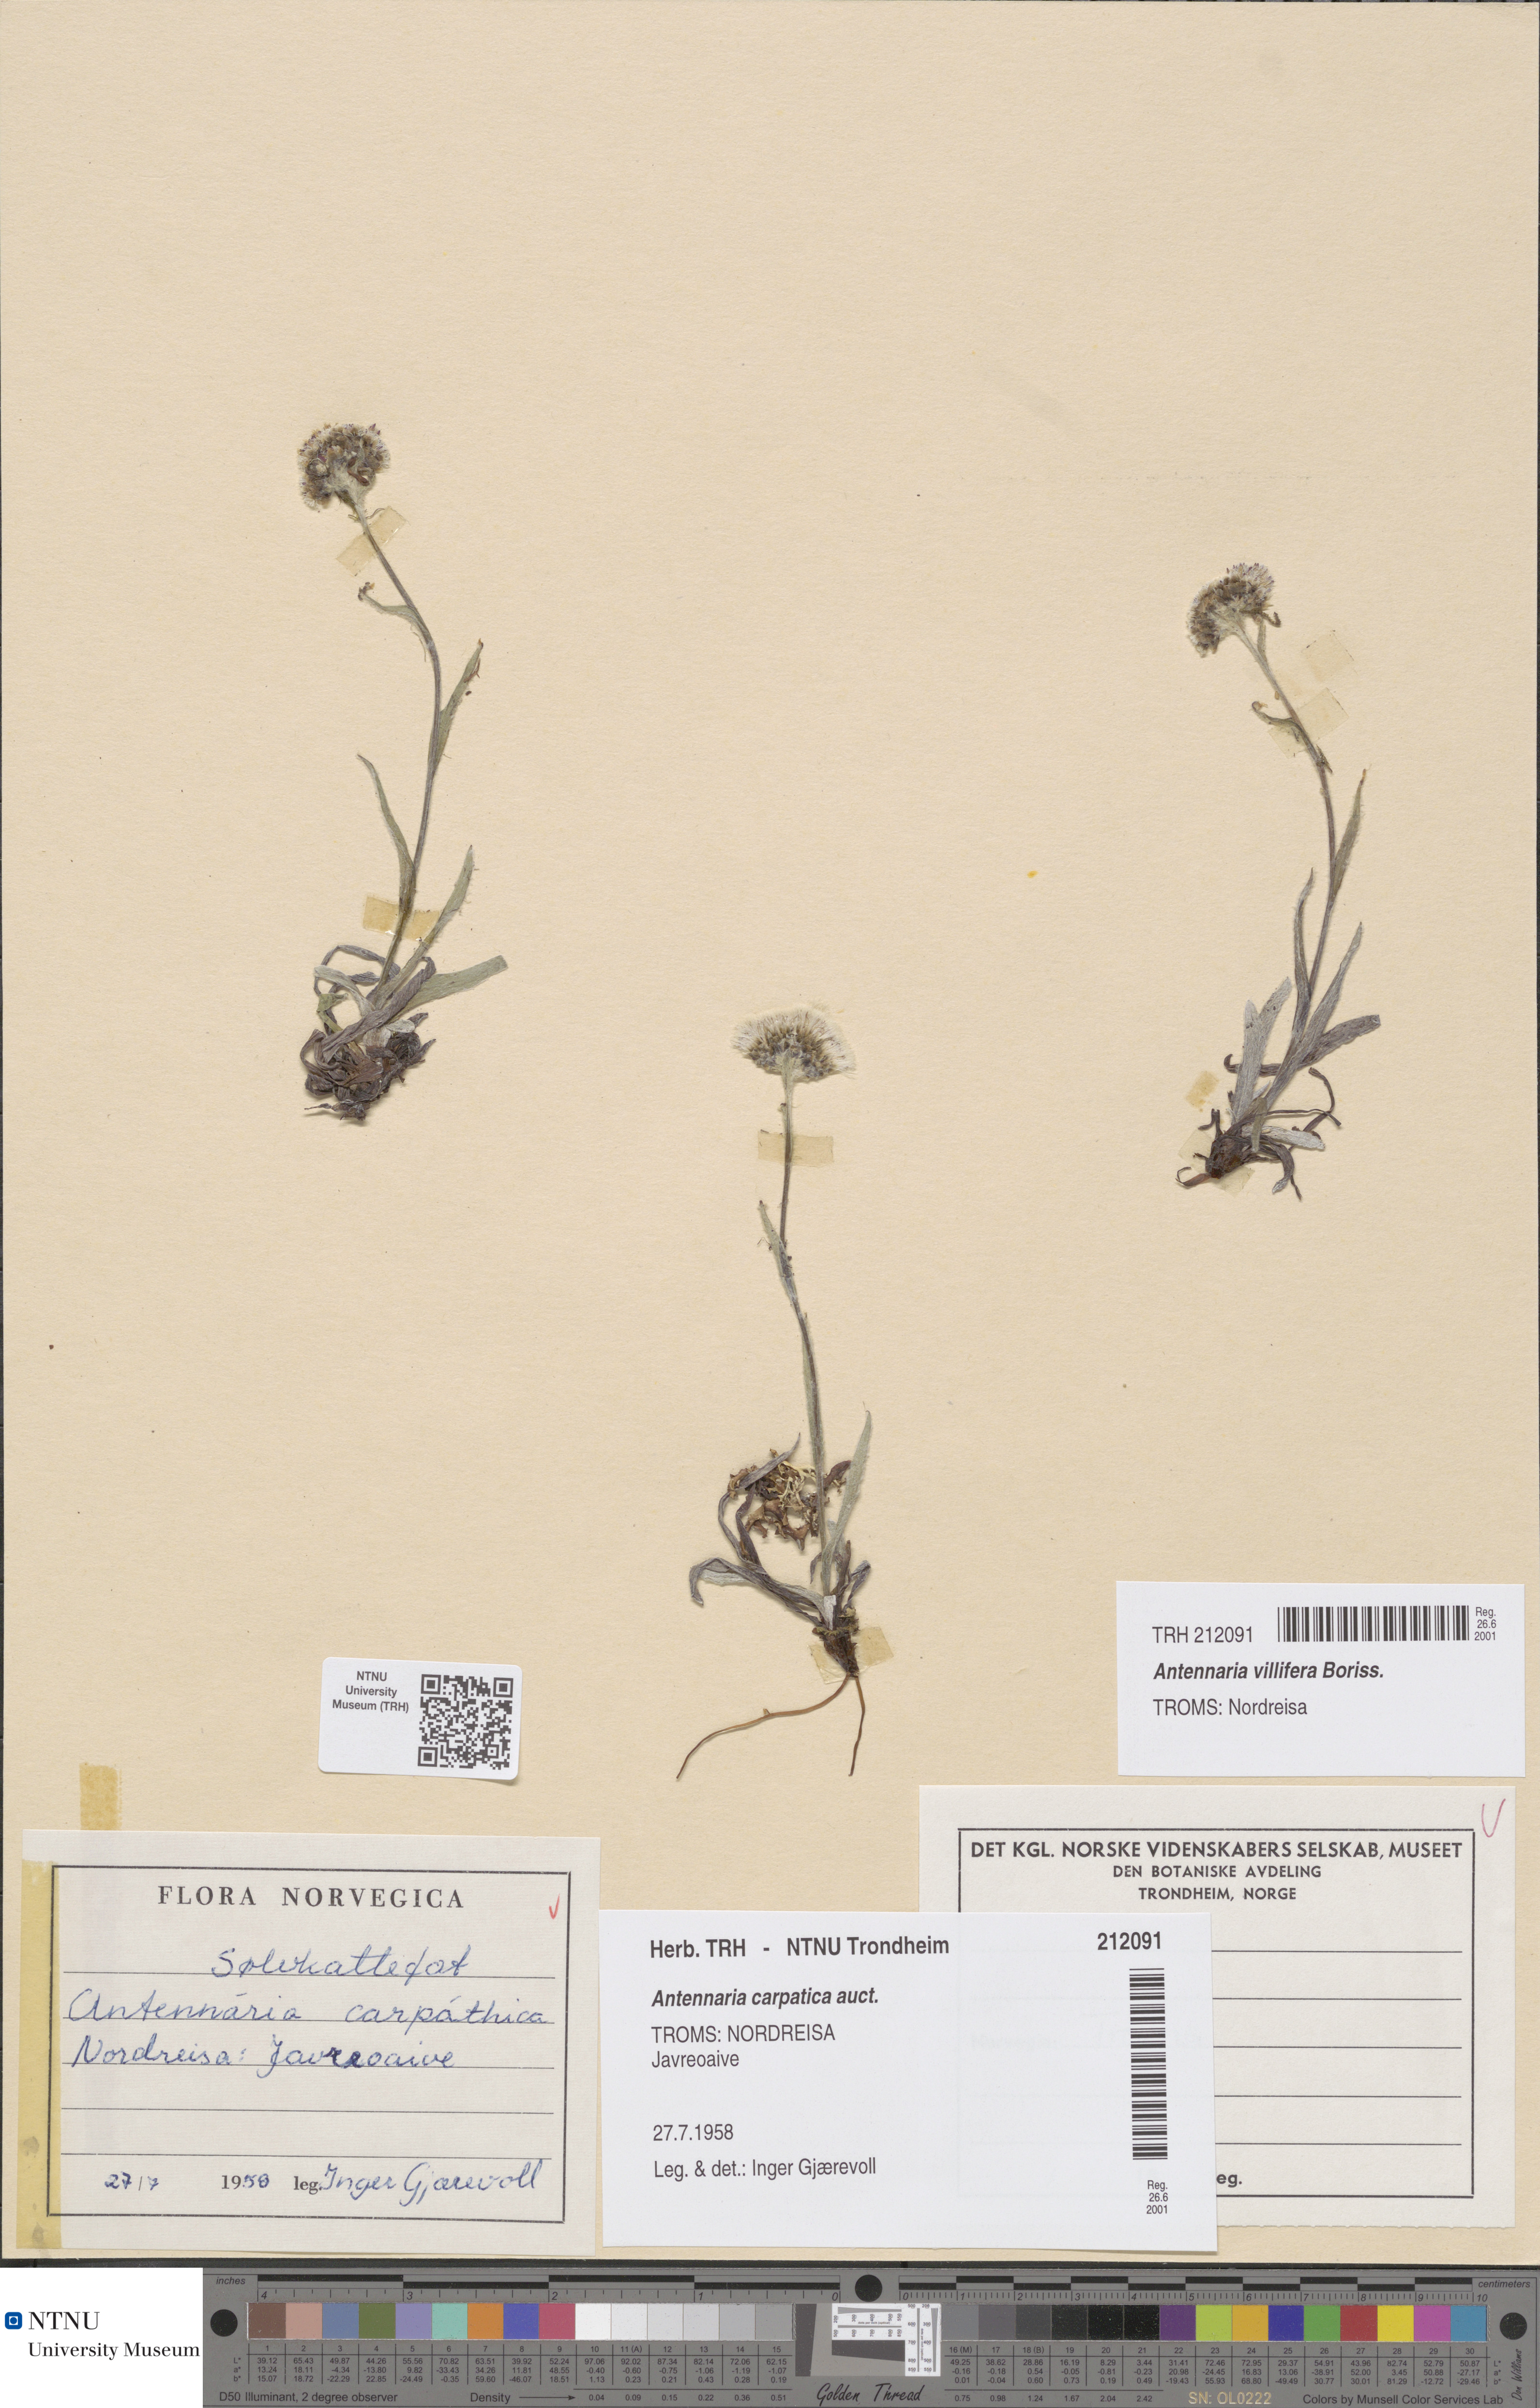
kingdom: Plantae
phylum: Tracheophyta
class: Magnoliopsida
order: Asterales
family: Asteraceae
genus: Antennaria
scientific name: Antennaria carpatica
